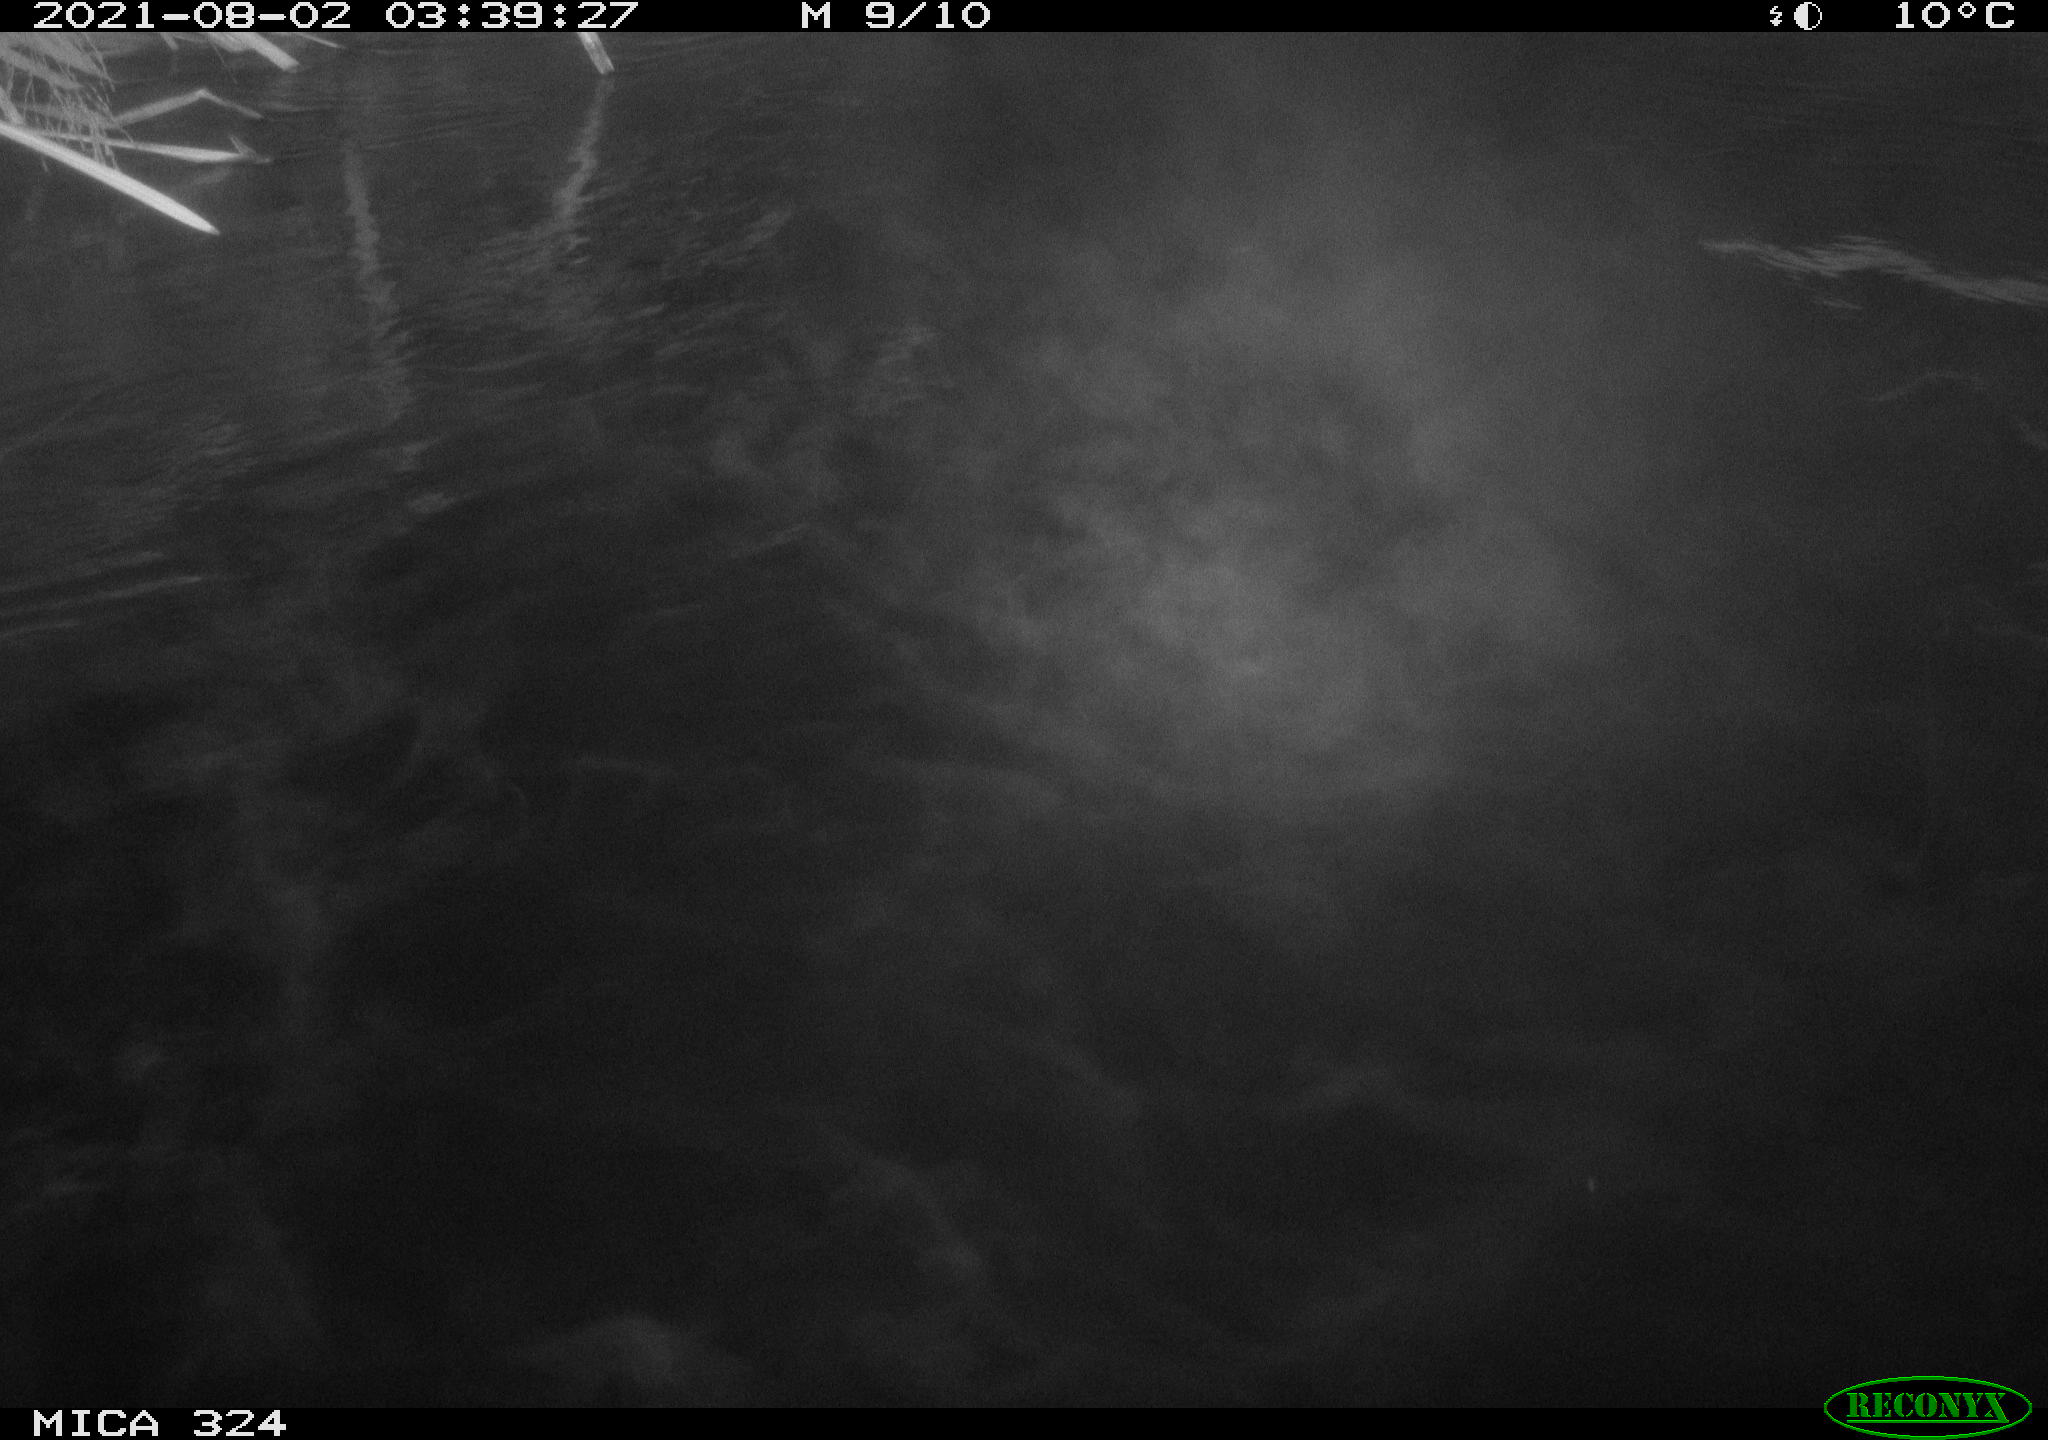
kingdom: Animalia
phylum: Chordata
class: Mammalia
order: Rodentia
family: Cricetidae
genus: Ondatra
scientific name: Ondatra zibethicus
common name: Muskrat
